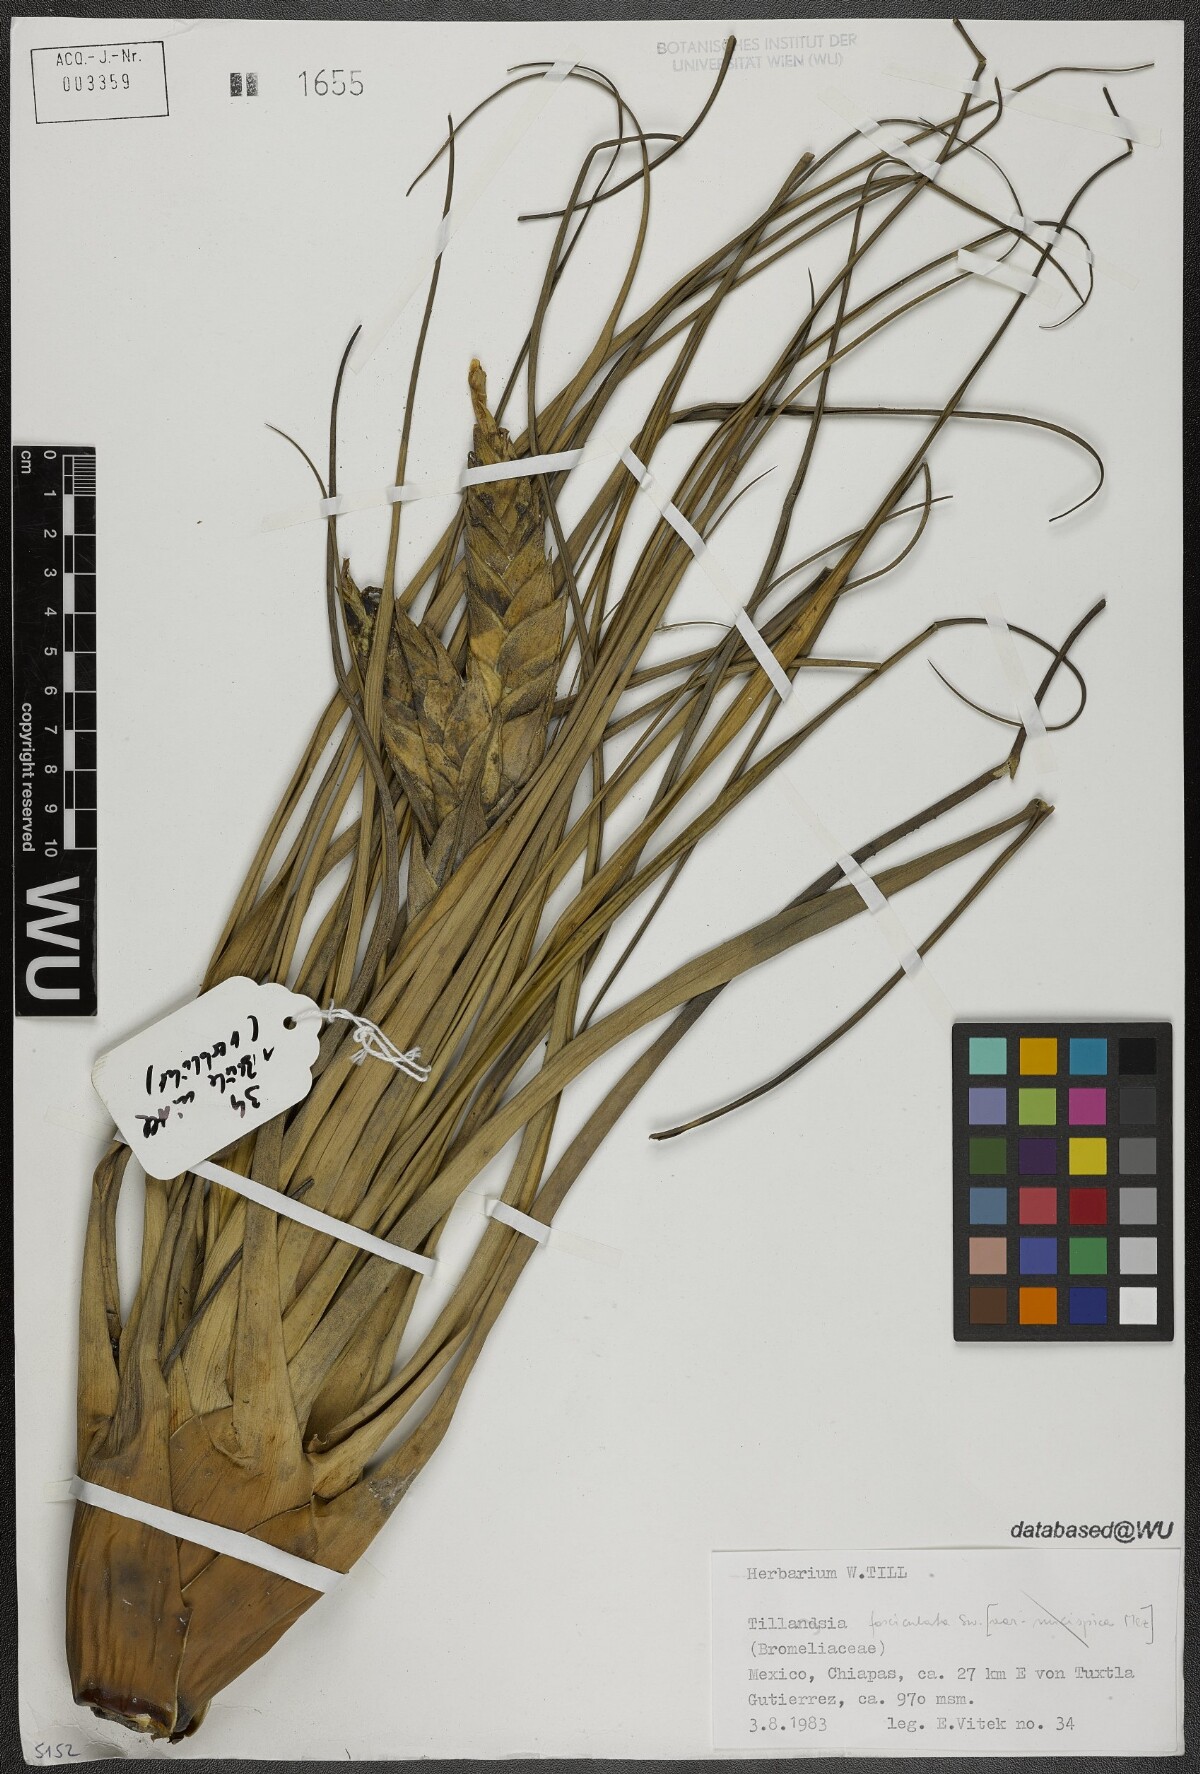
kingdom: Plantae
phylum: Tracheophyta
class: Liliopsida
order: Poales
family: Bromeliaceae
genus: Tillandsia
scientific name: Tillandsia fasciculata
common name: Giant airplant
